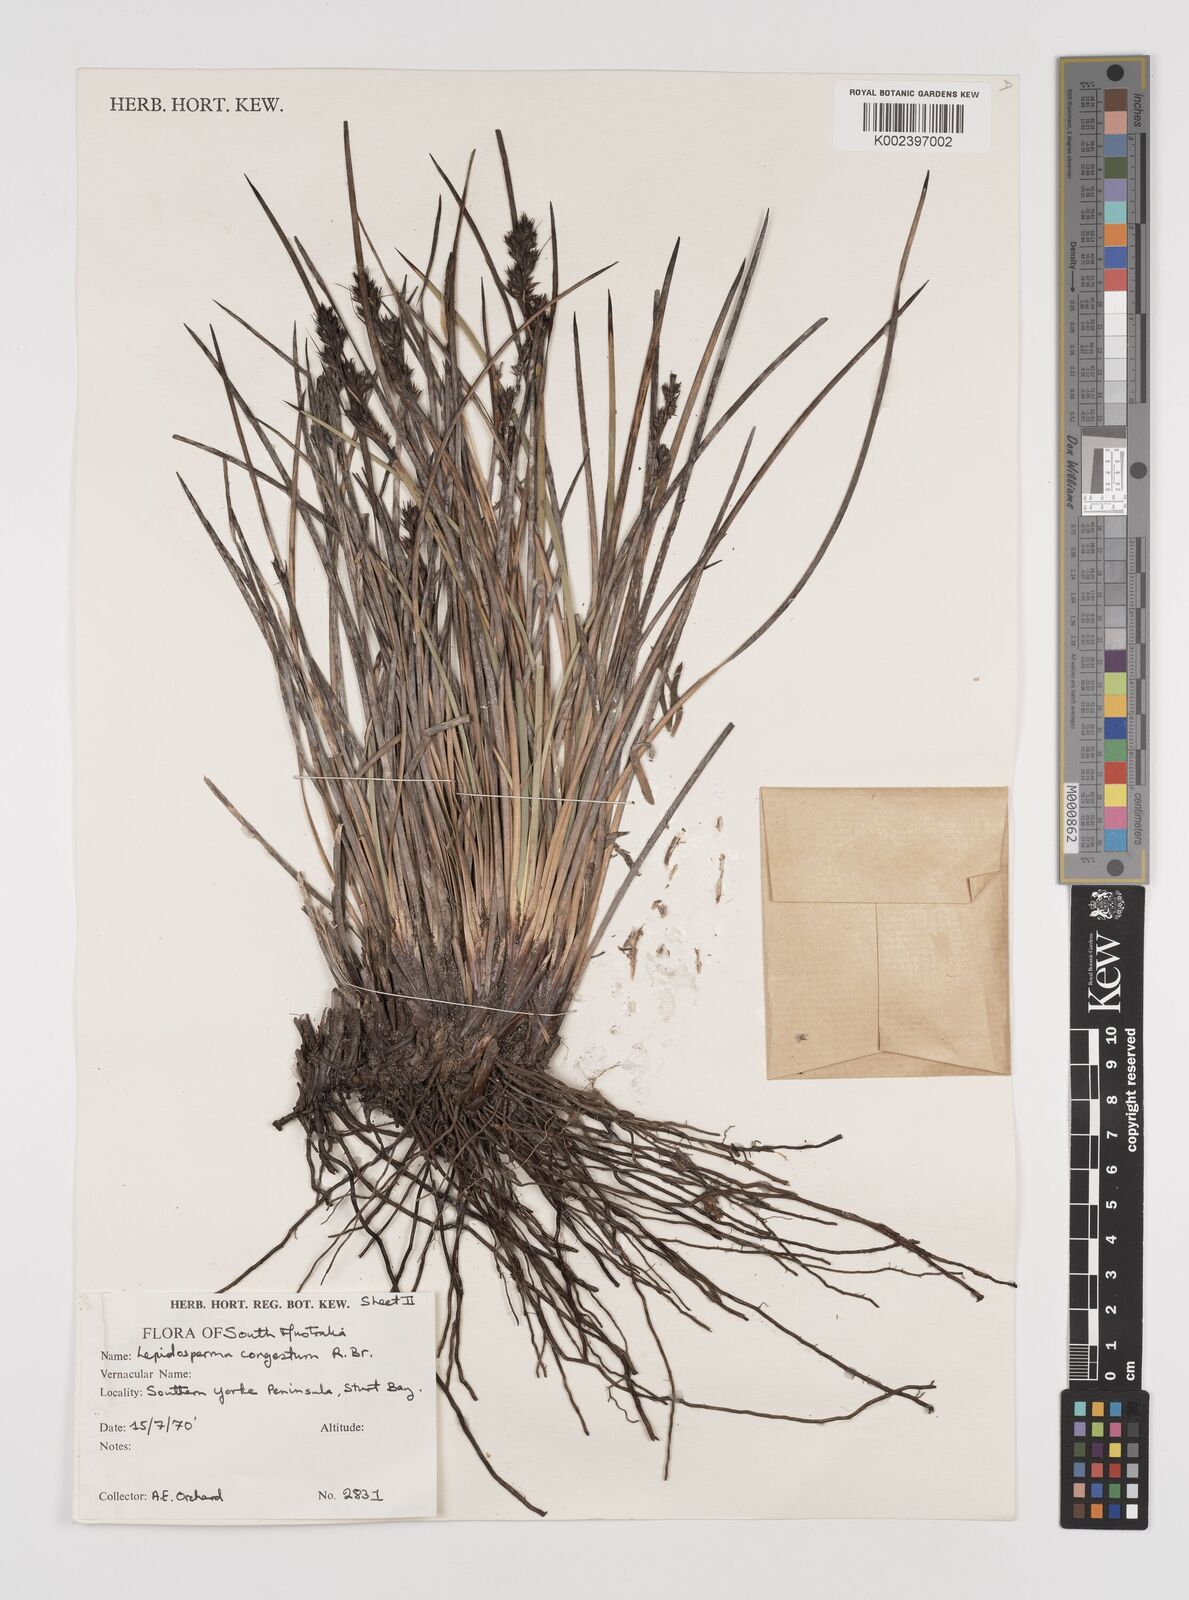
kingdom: Plantae
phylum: Tracheophyta
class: Liliopsida
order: Poales
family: Cyperaceae
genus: Lepidosperma
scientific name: Lepidosperma congestum
